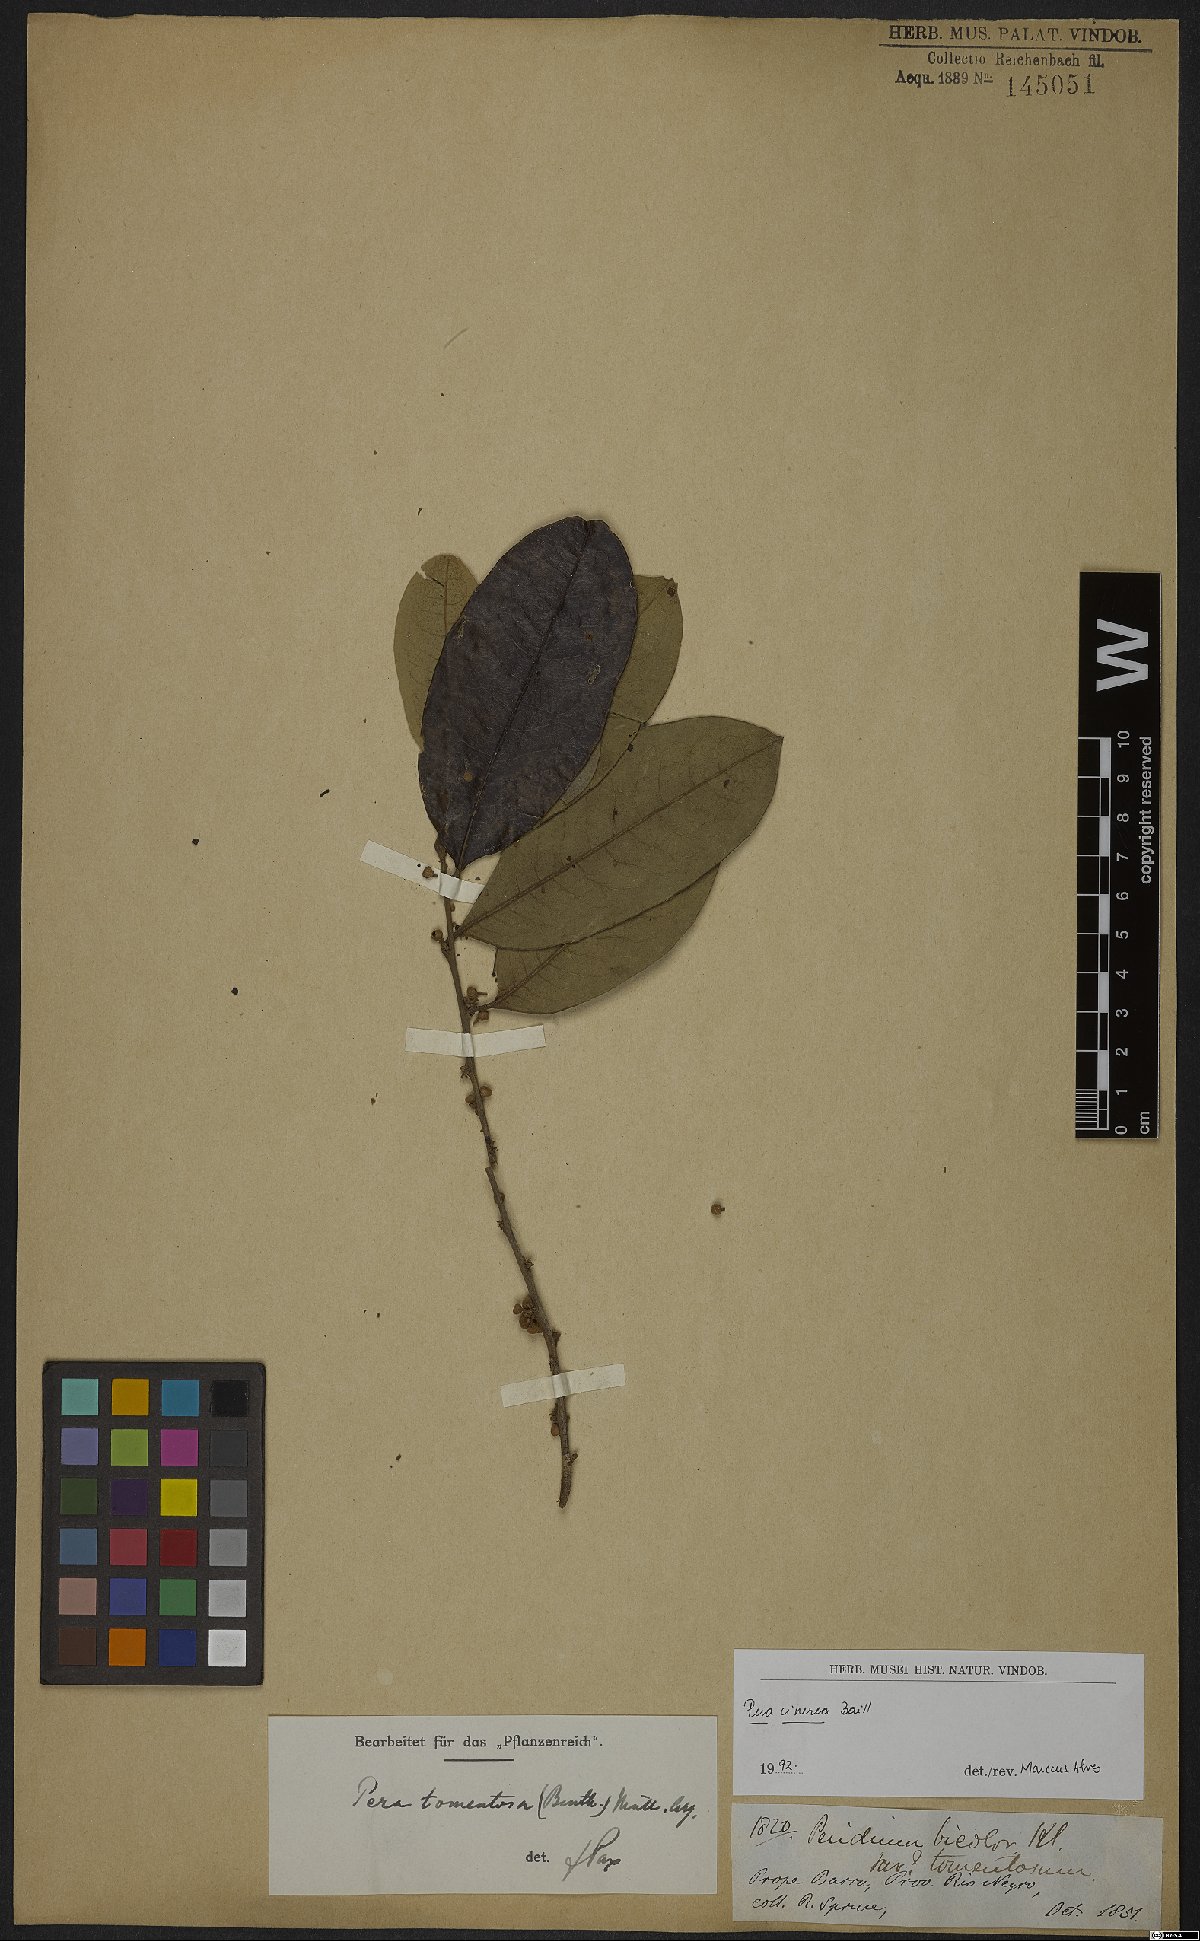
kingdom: Plantae
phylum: Tracheophyta
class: Magnoliopsida
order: Malpighiales
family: Peraceae
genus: Pera
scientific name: Pera tomentosa
